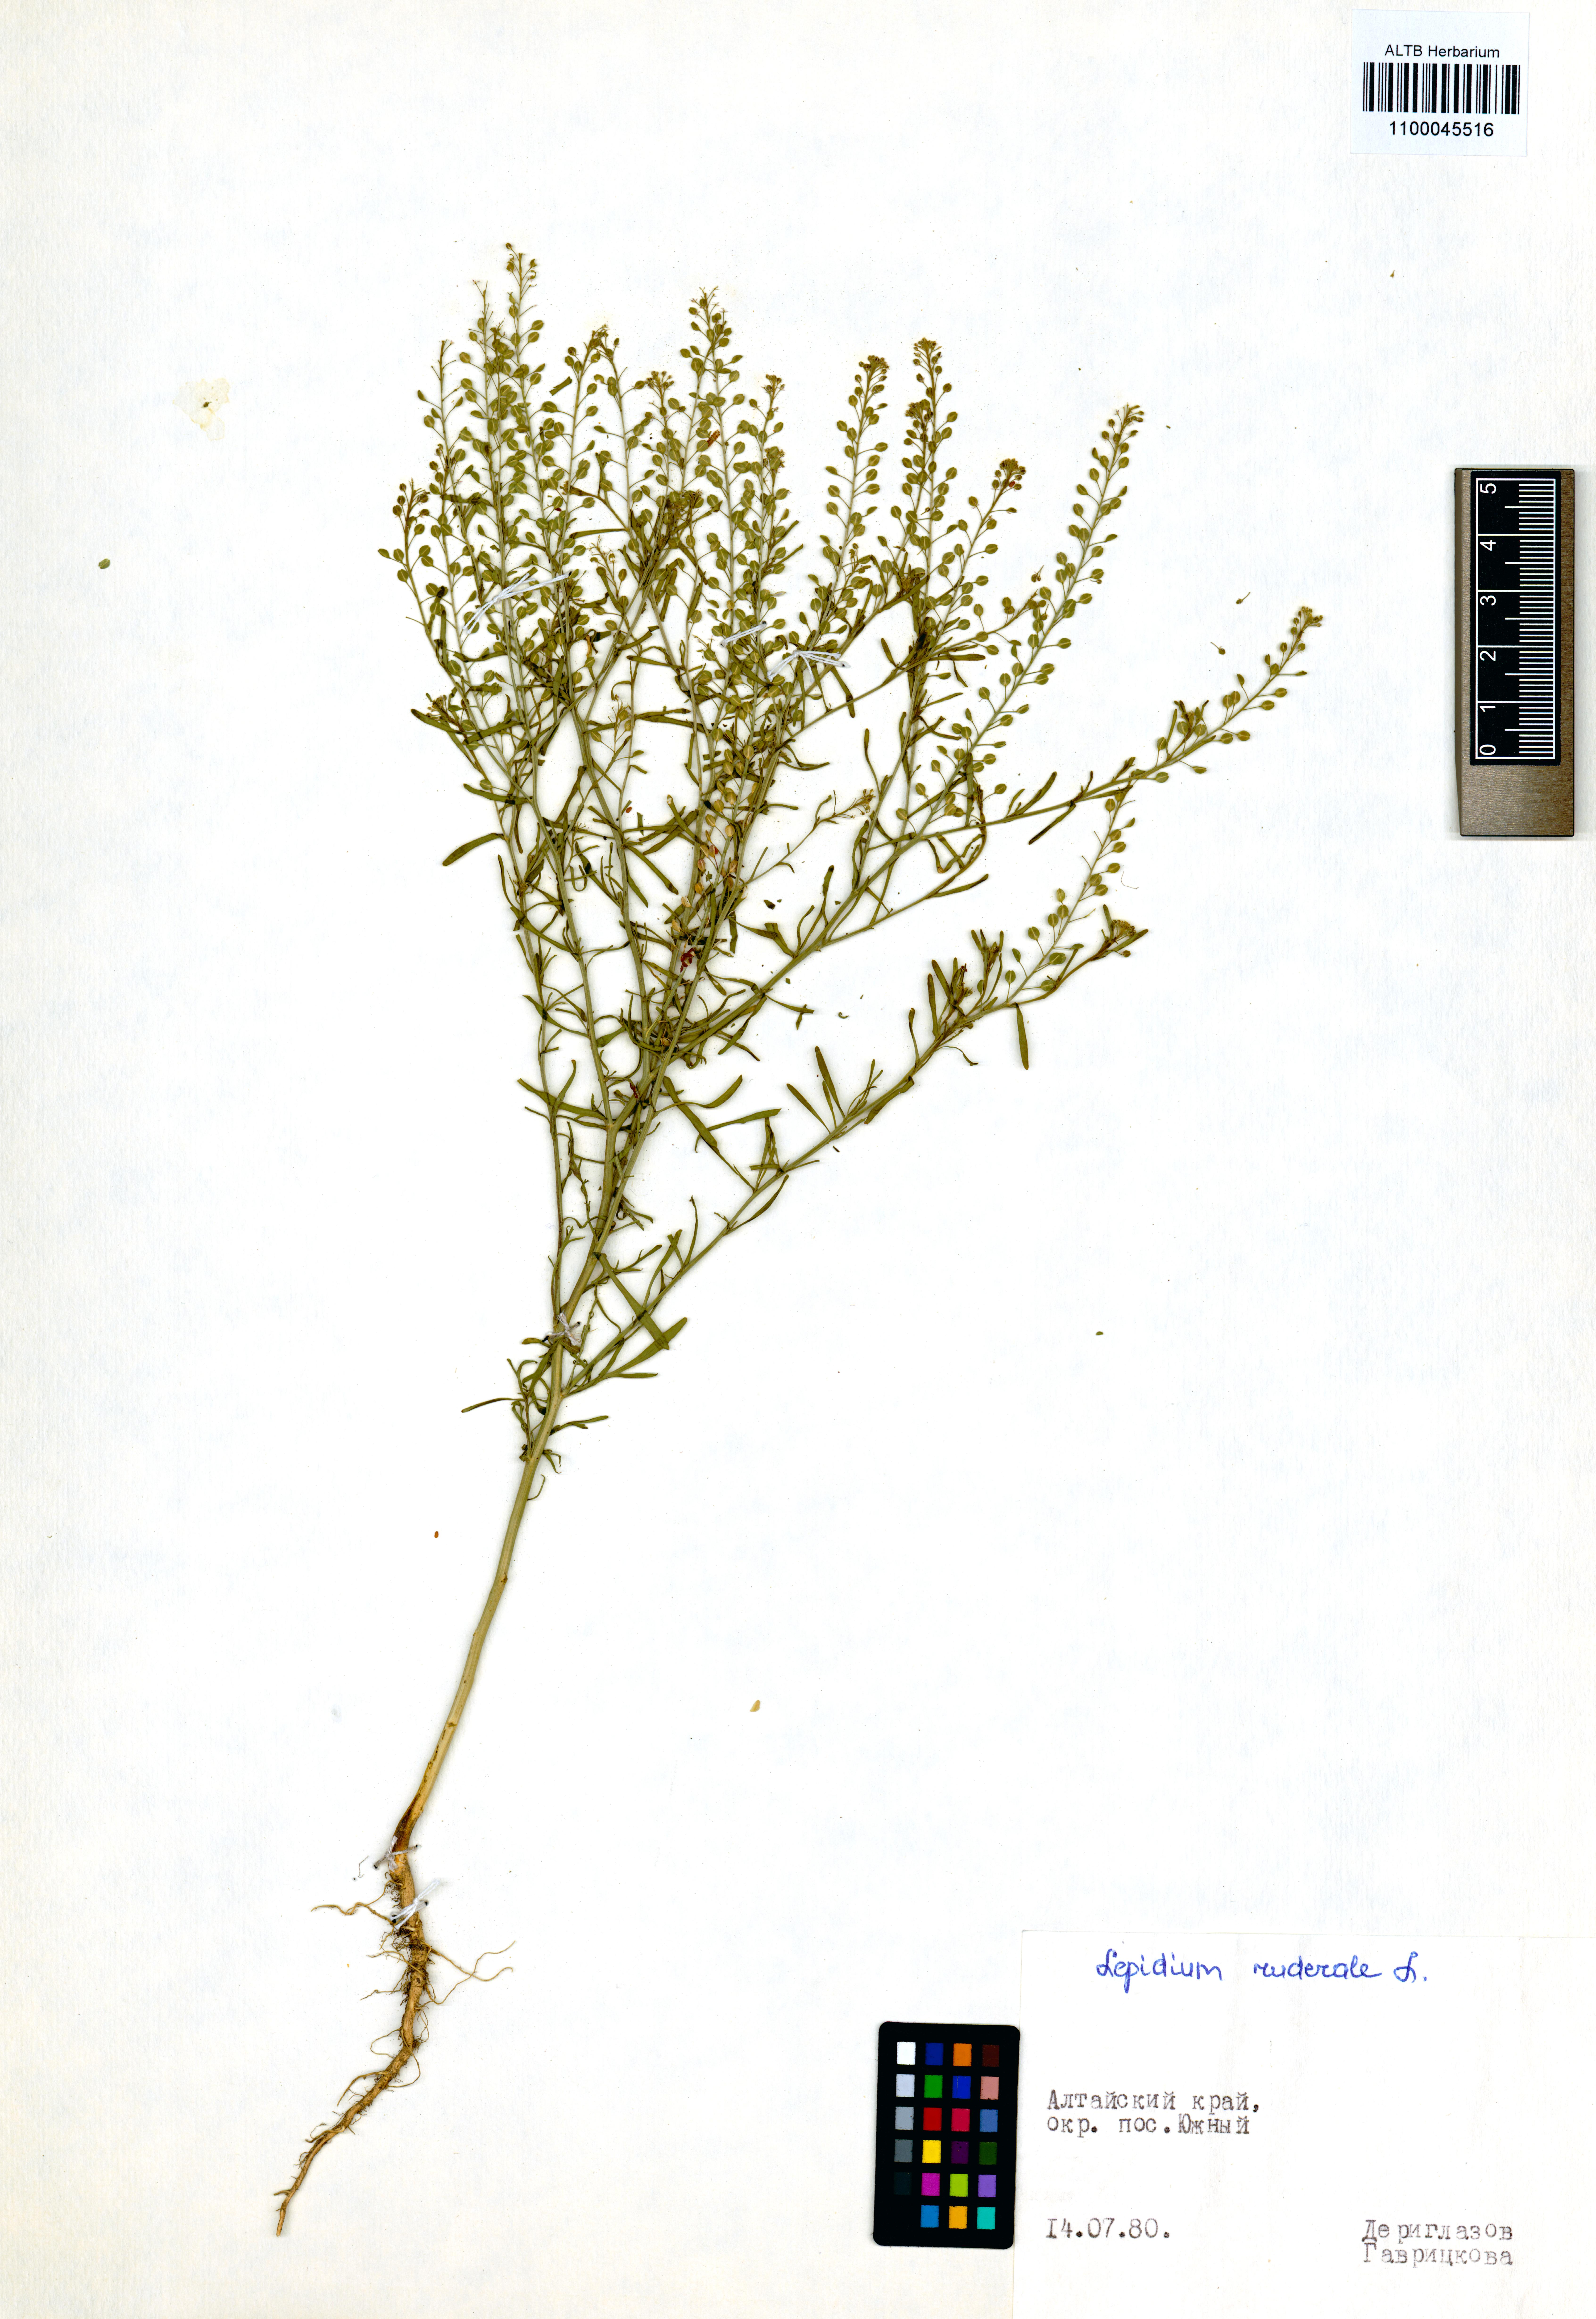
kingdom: Plantae
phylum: Tracheophyta
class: Magnoliopsida
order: Brassicales
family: Brassicaceae
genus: Lepidium
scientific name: Lepidium ruderale
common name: Narrow-leaved pepperwort
